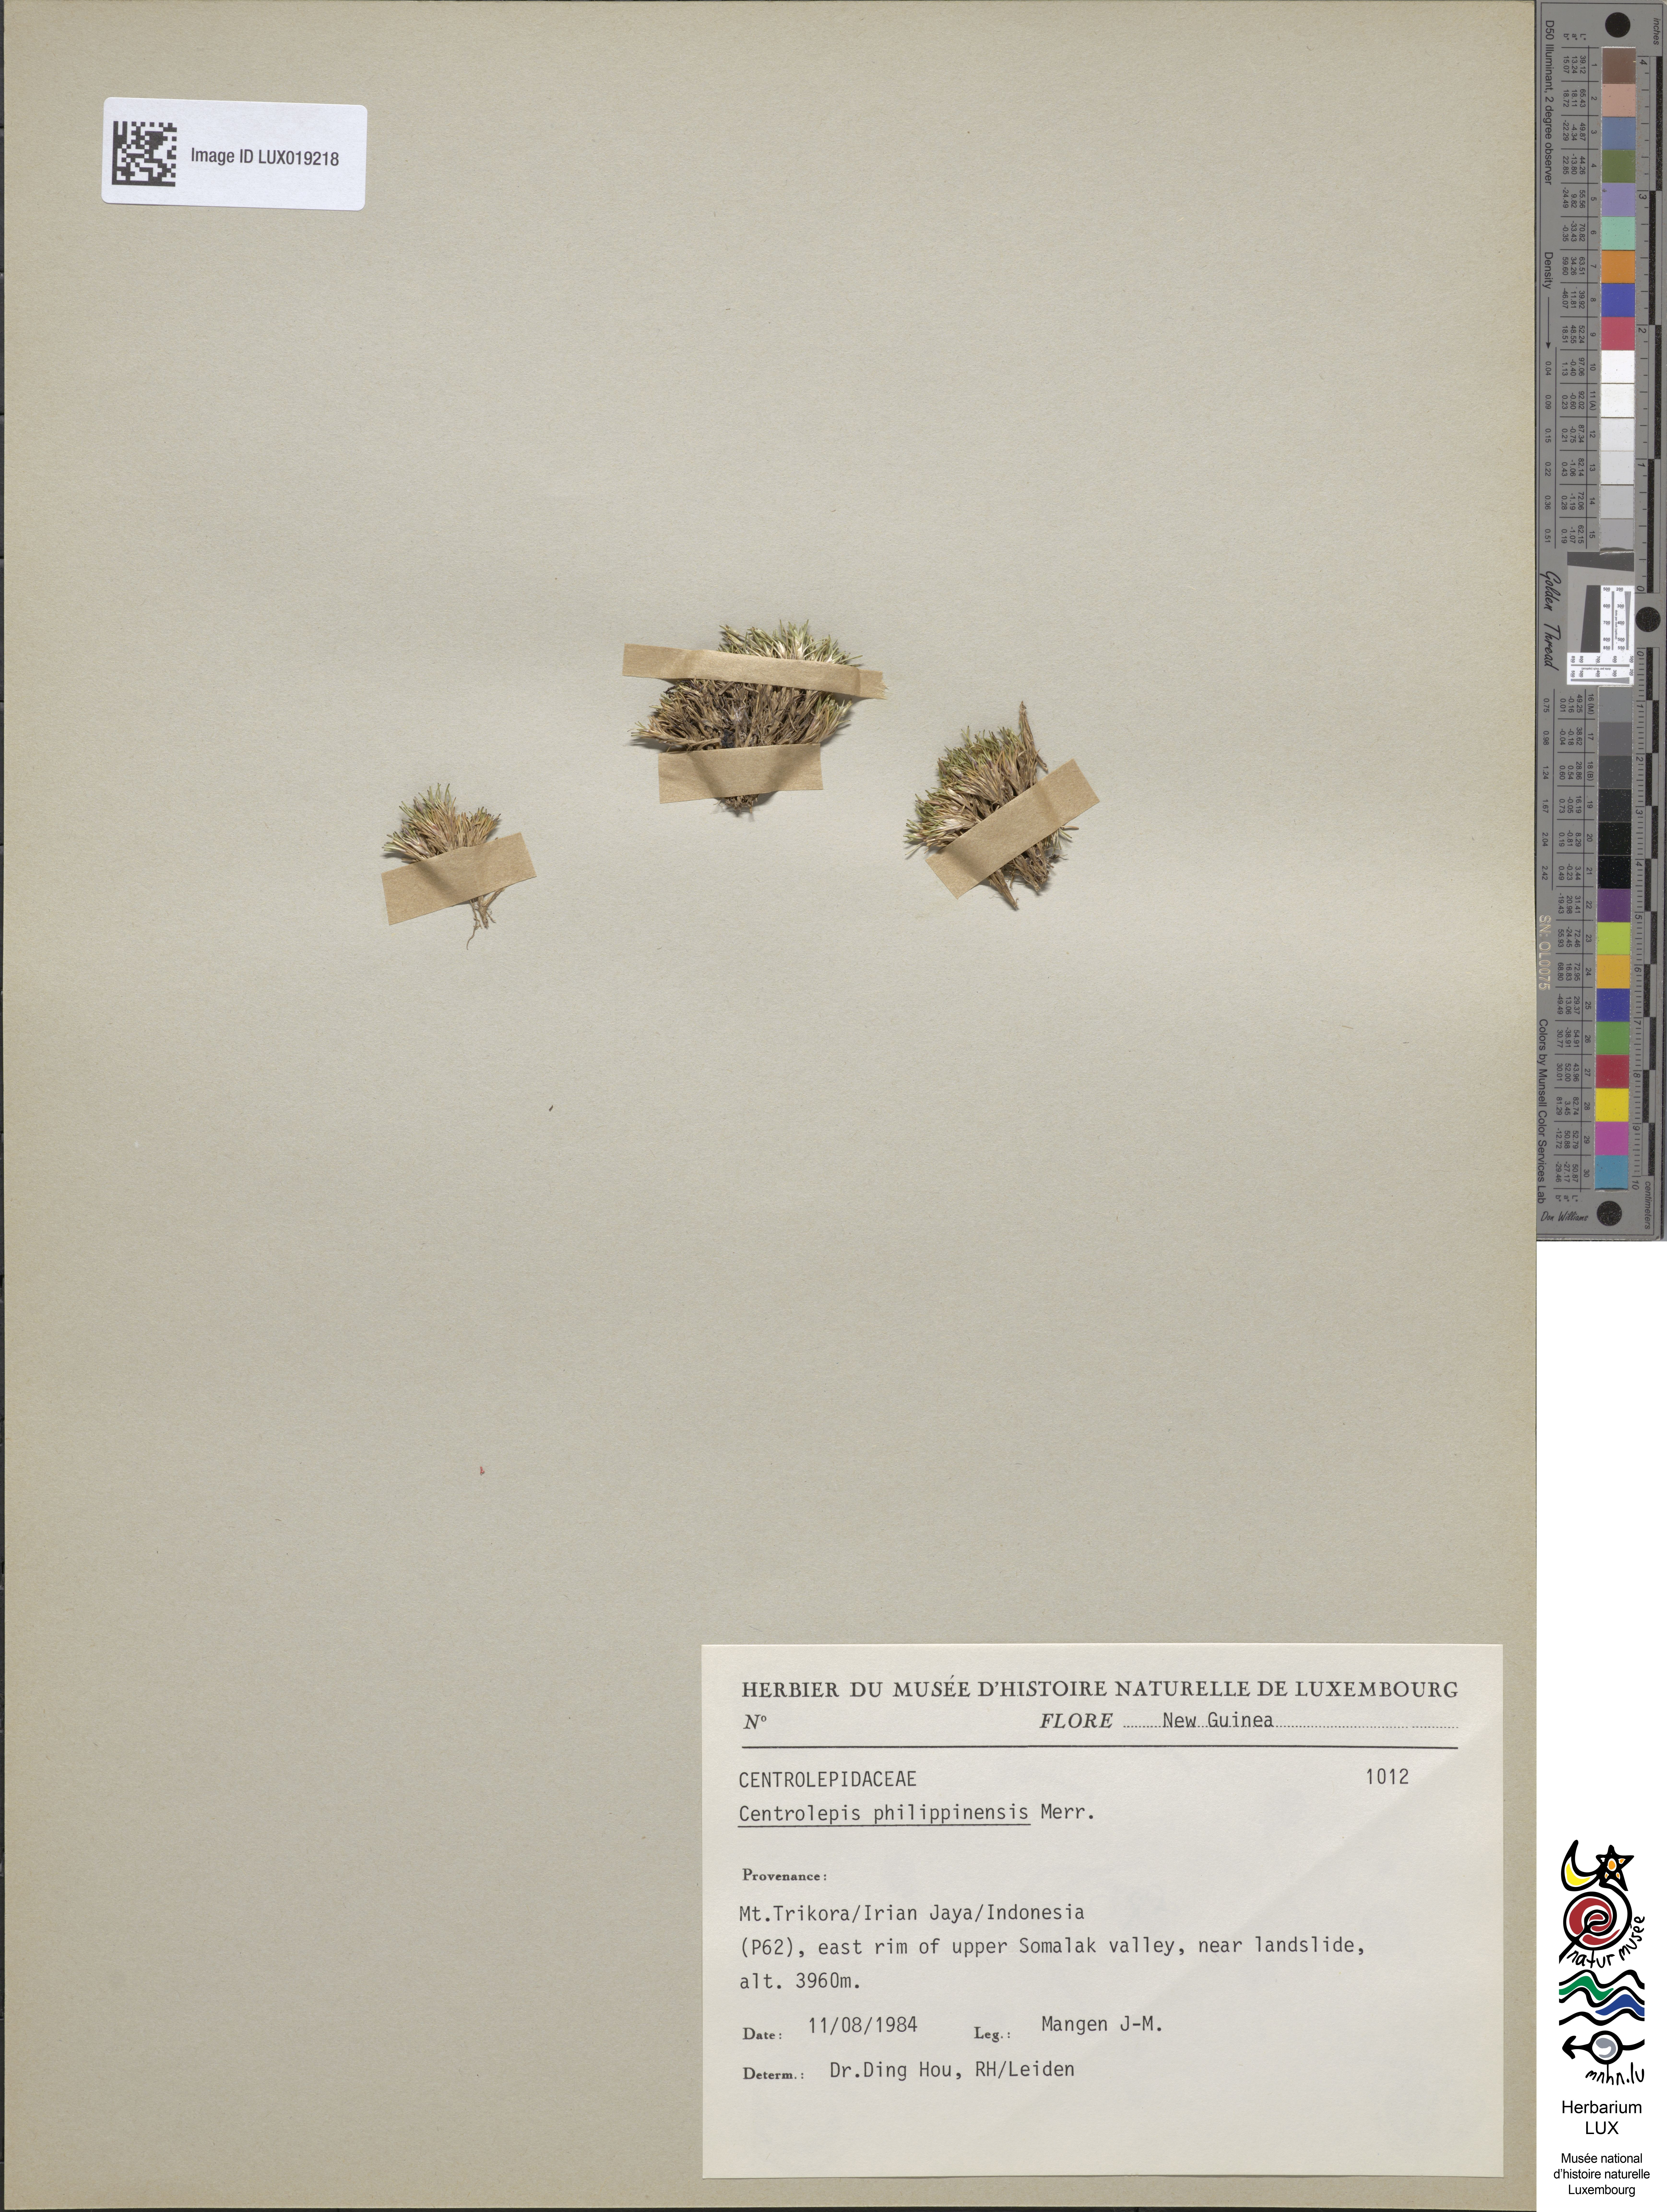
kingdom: Plantae
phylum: Tracheophyta
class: Liliopsida
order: Poales
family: Restionaceae
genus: Centrolepis
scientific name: Centrolepis philippinensis
